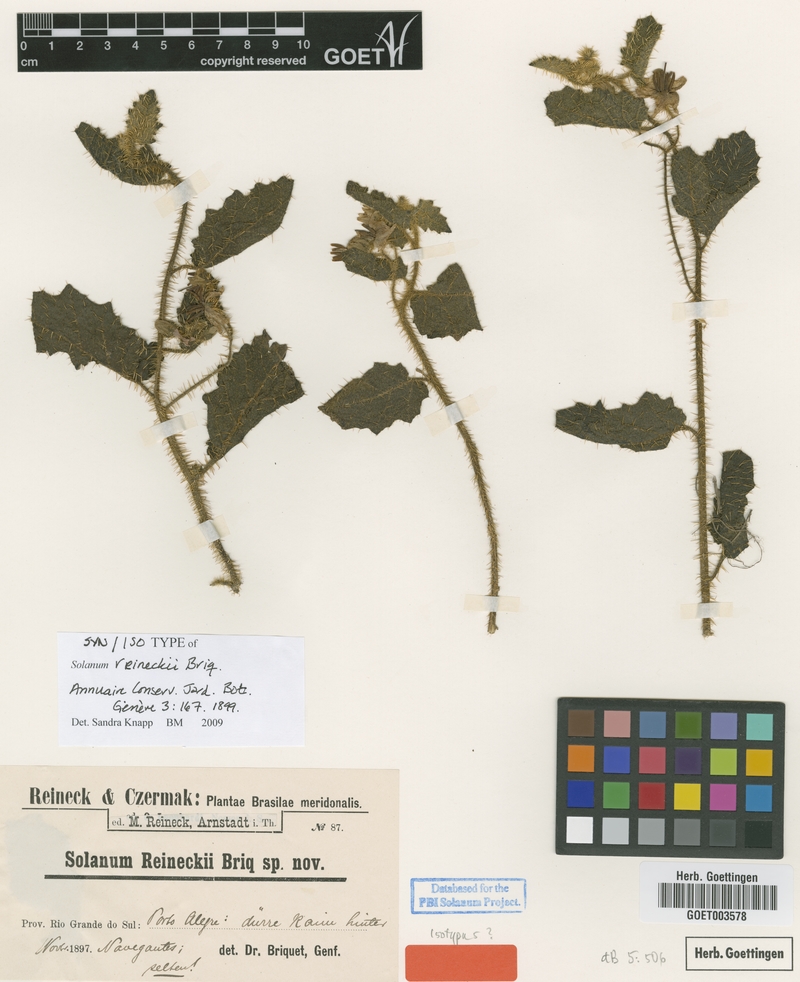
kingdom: Plantae
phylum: Tracheophyta
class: Magnoliopsida
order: Solanales
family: Solanaceae
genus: Solanum
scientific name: Solanum reineckii
